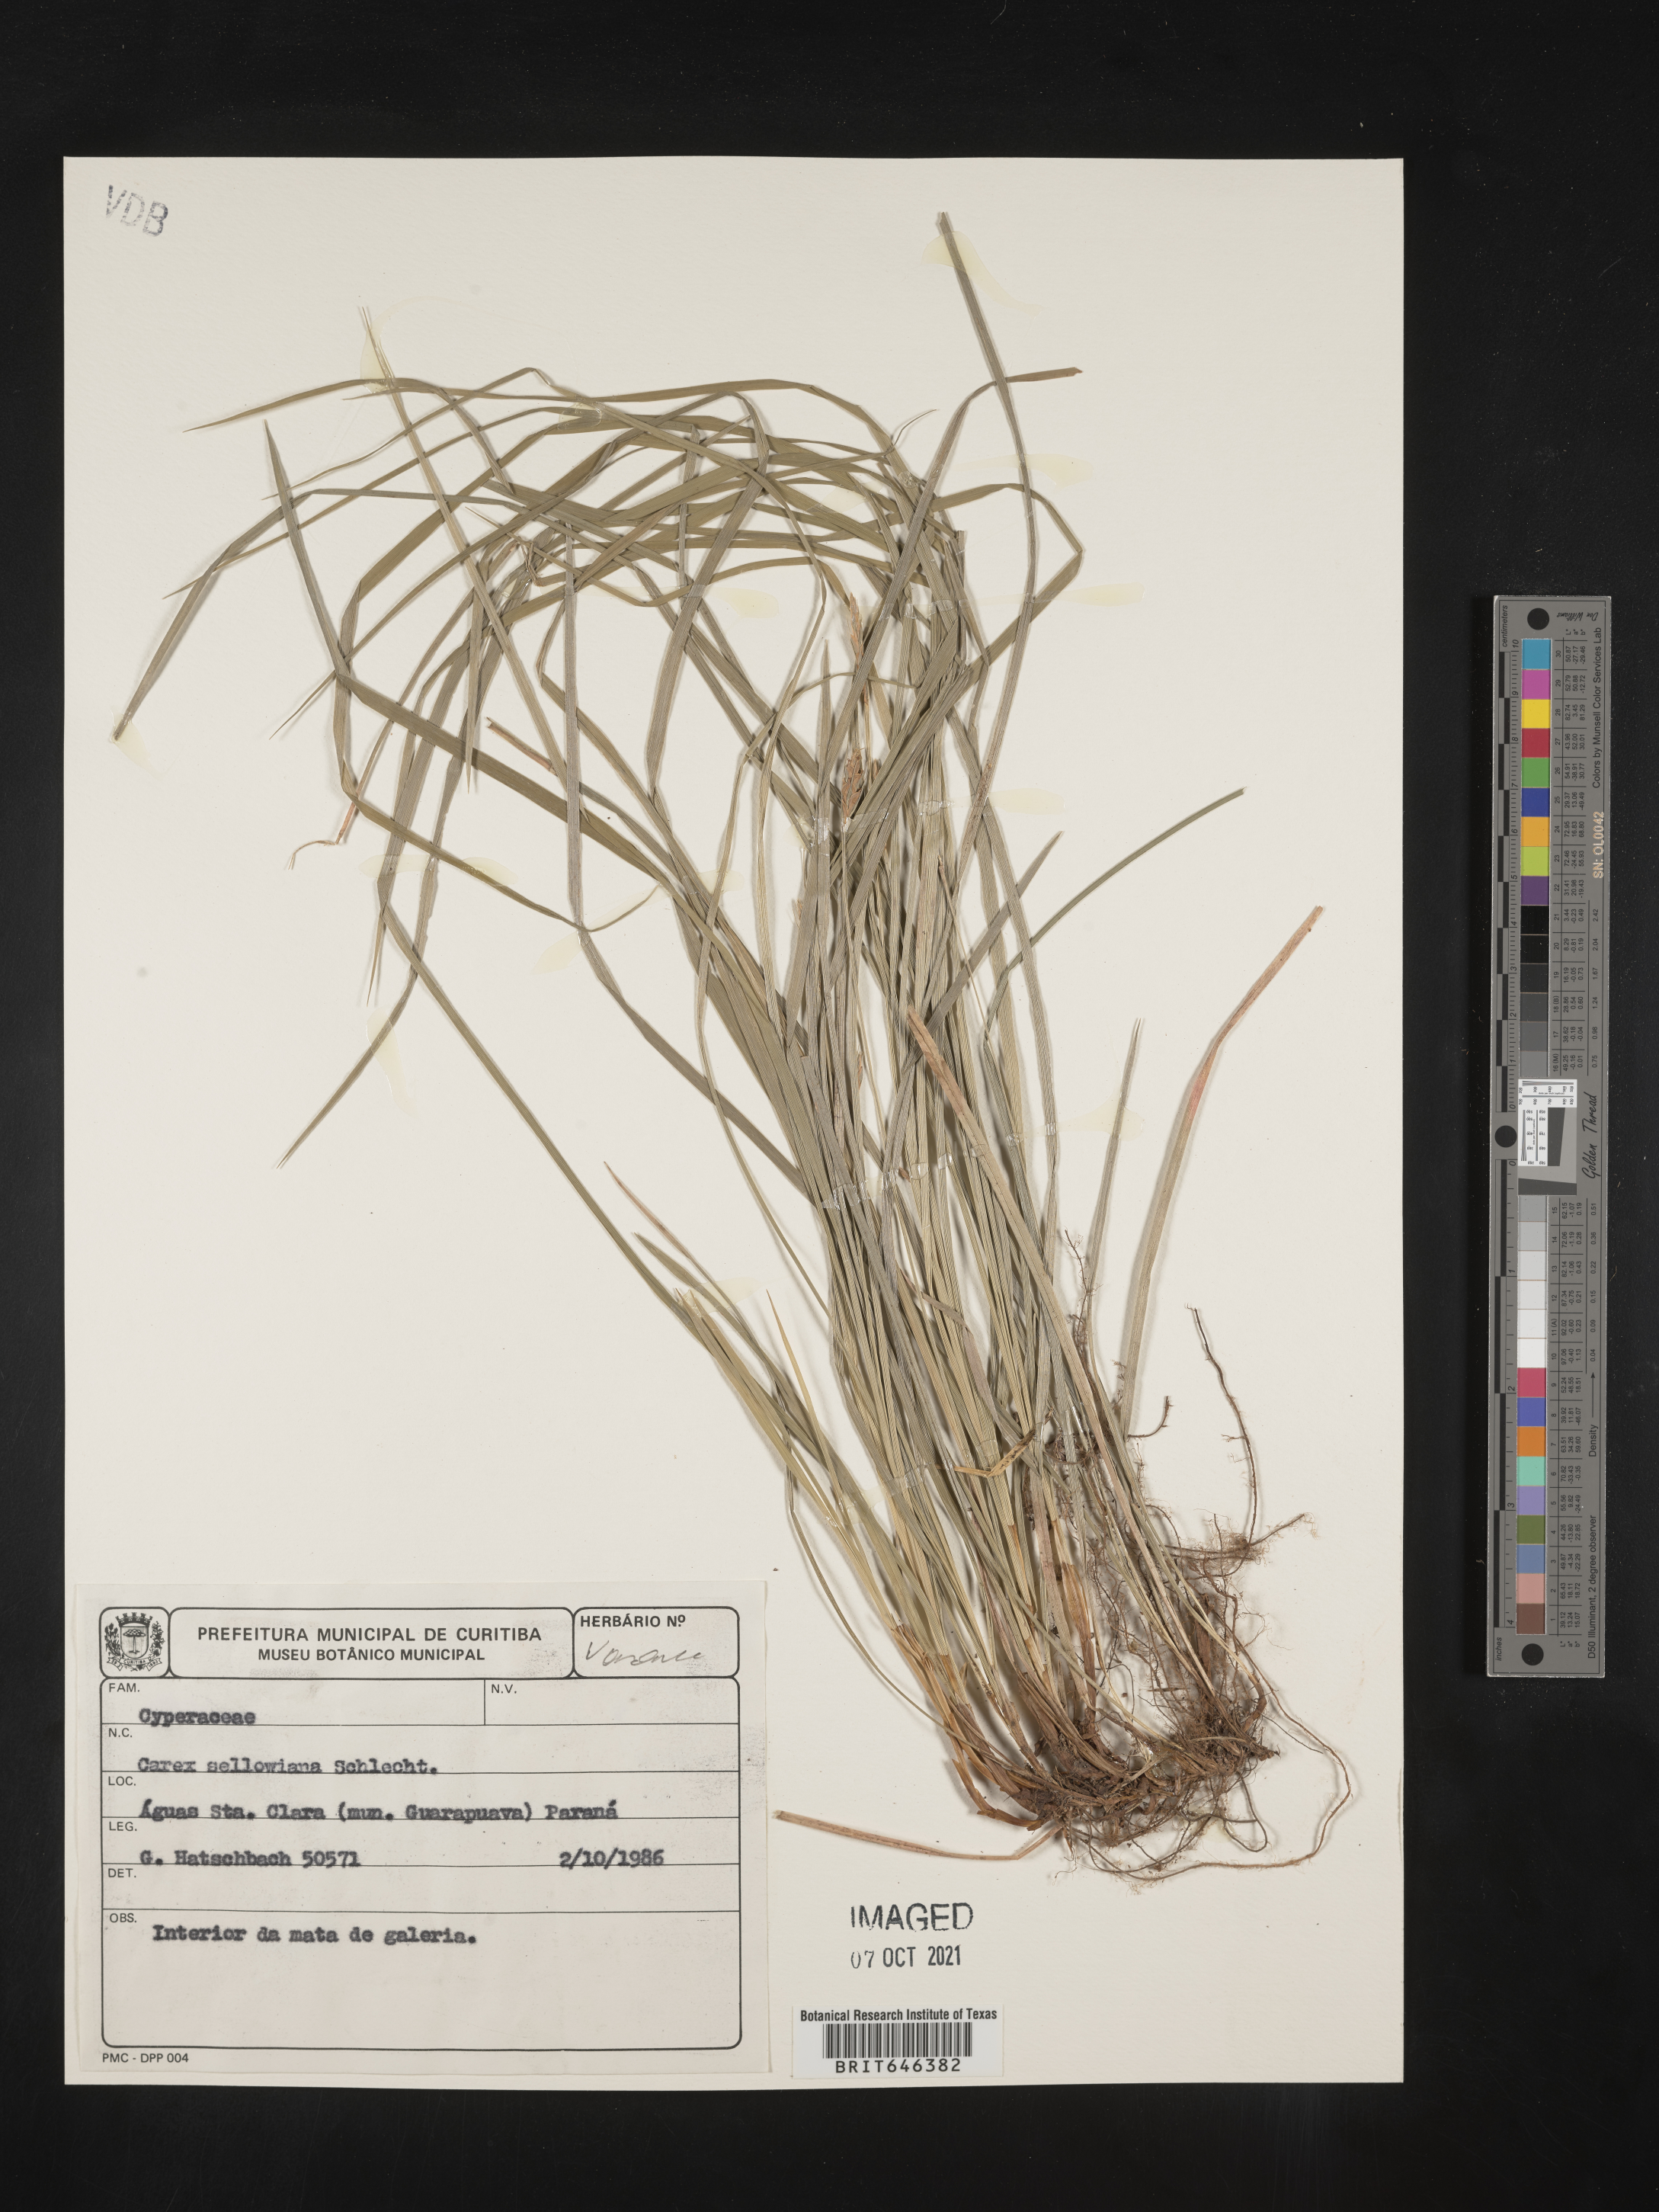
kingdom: Plantae
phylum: Tracheophyta
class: Liliopsida
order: Poales
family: Cyperaceae
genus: Carex
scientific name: Carex sellowiana
